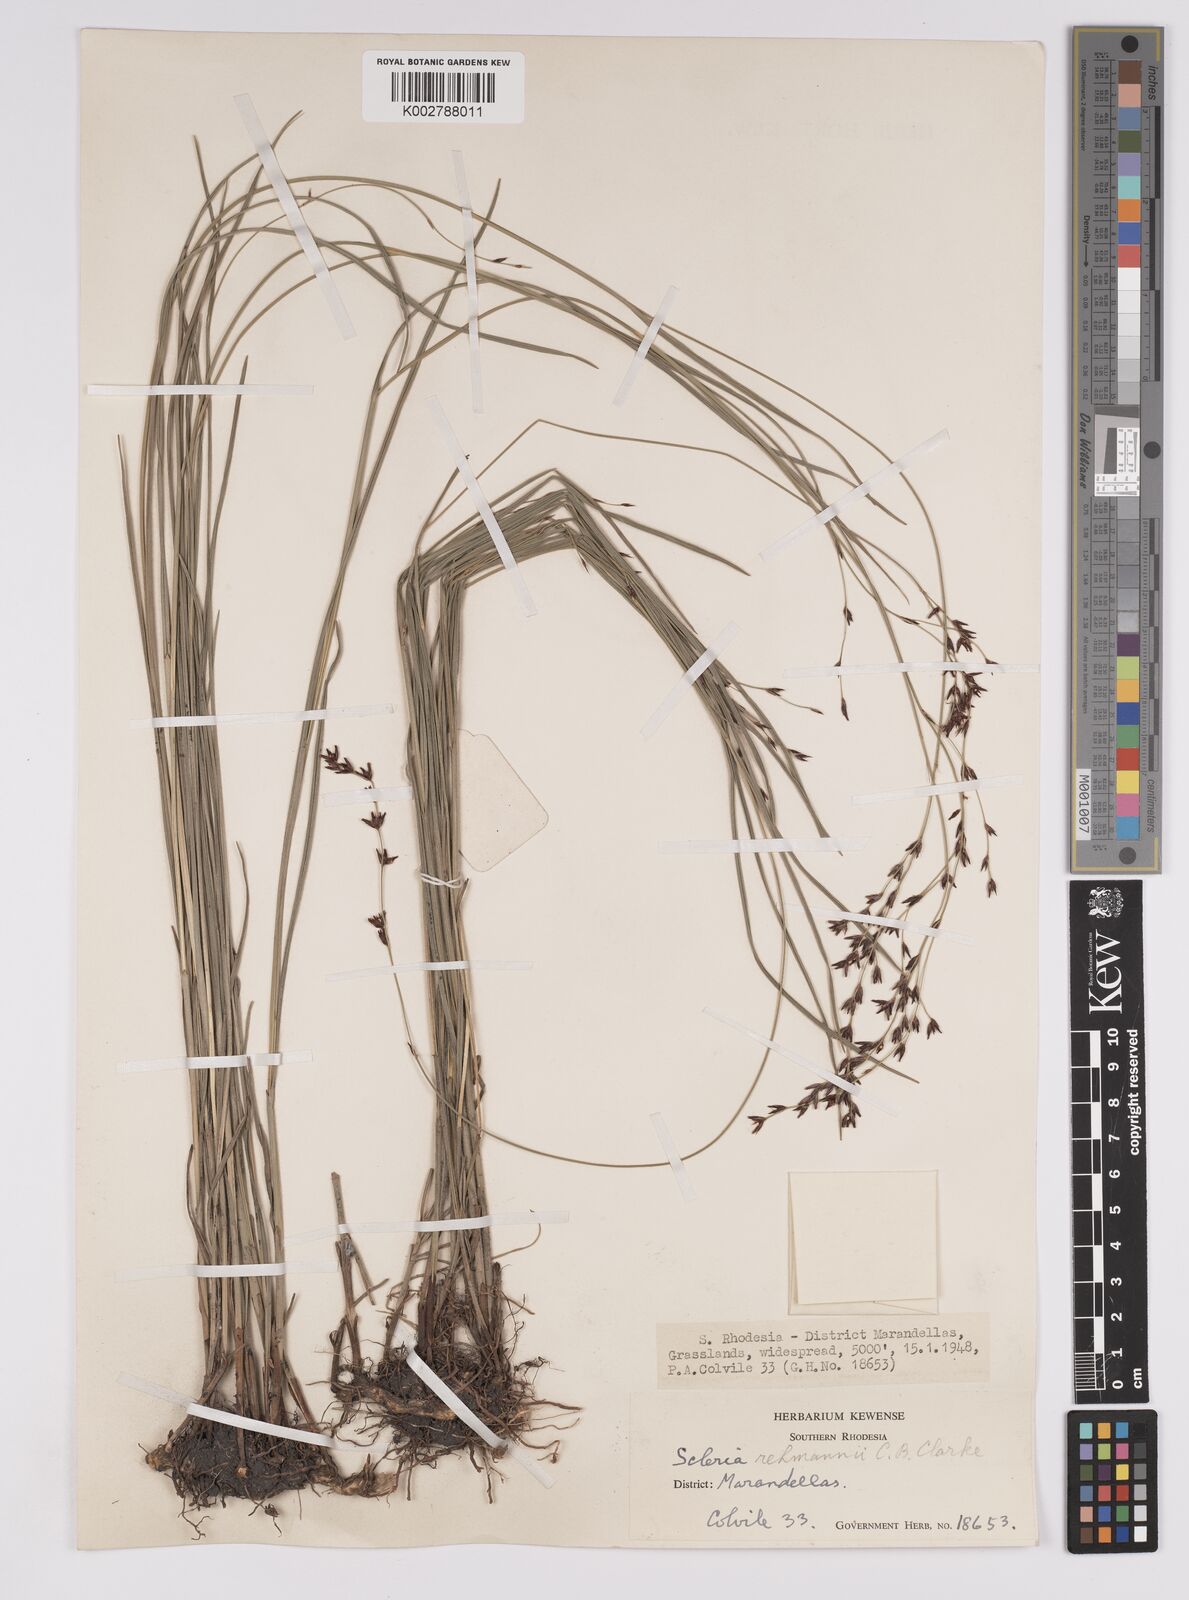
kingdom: Plantae
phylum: Tracheophyta
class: Liliopsida
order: Poales
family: Cyperaceae
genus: Scleria
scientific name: Scleria rehmannii
